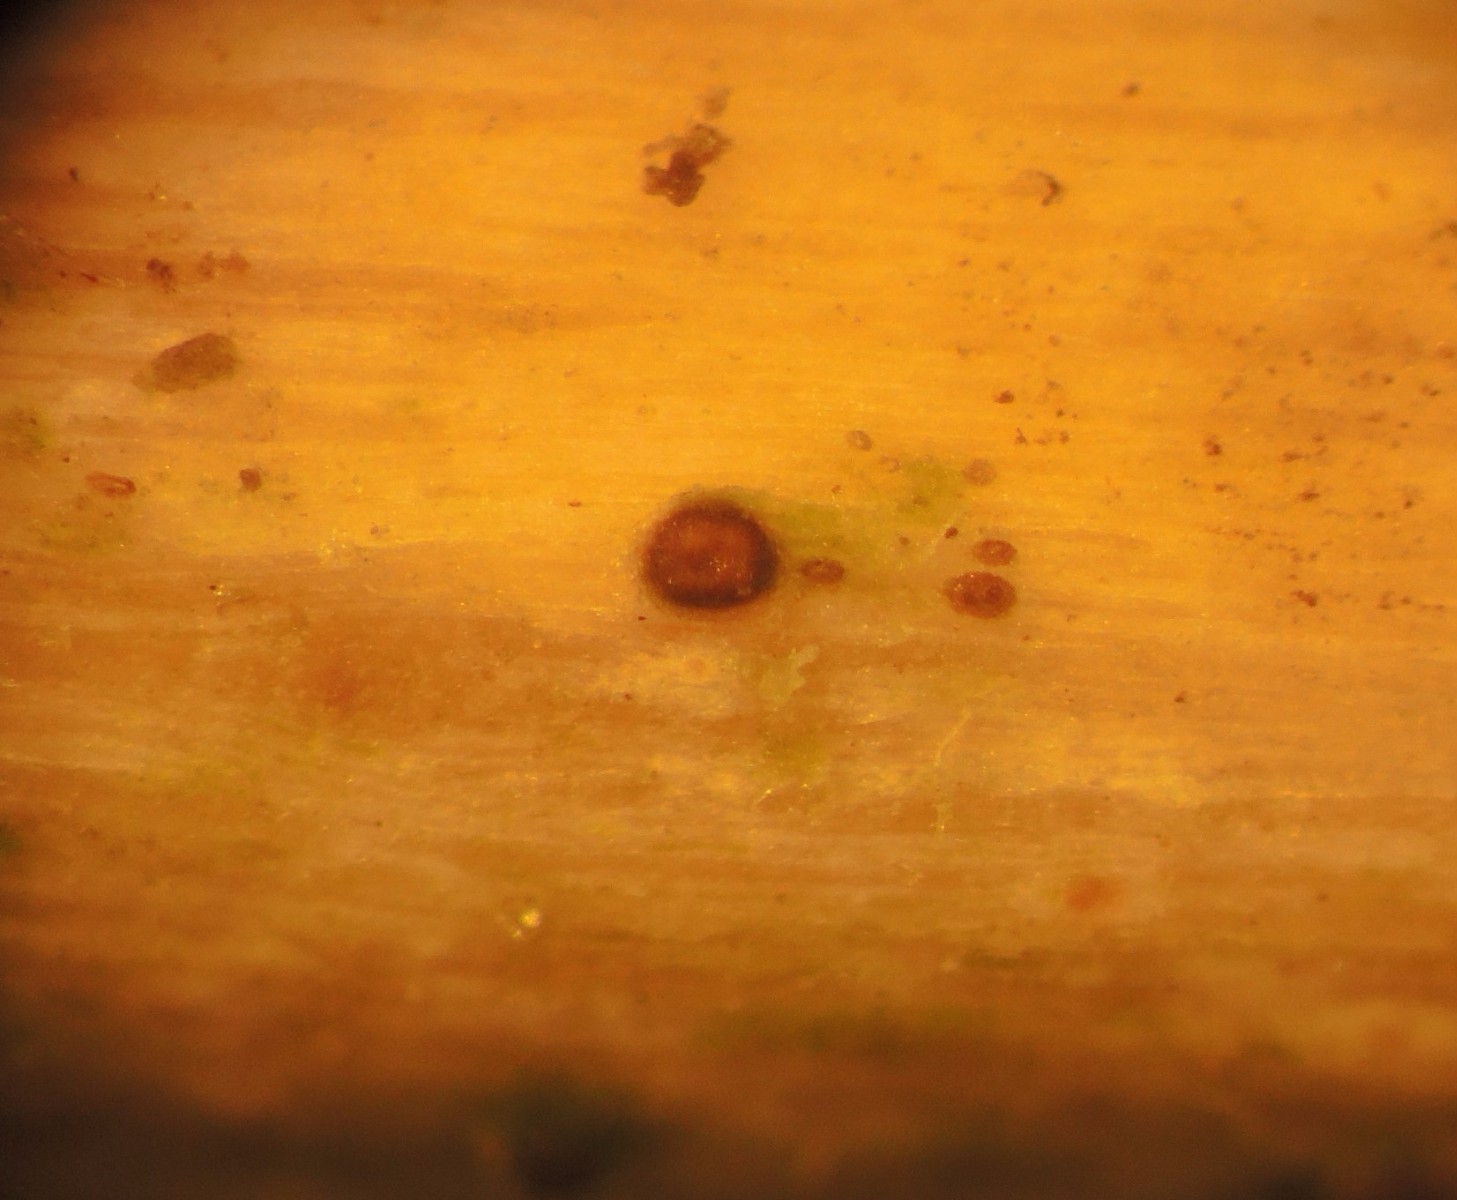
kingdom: Fungi
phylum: Ascomycota
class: Sordariomycetes
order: Xylariales
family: Hyponectriaceae
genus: Exarmidium
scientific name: Exarmidium inclusum
